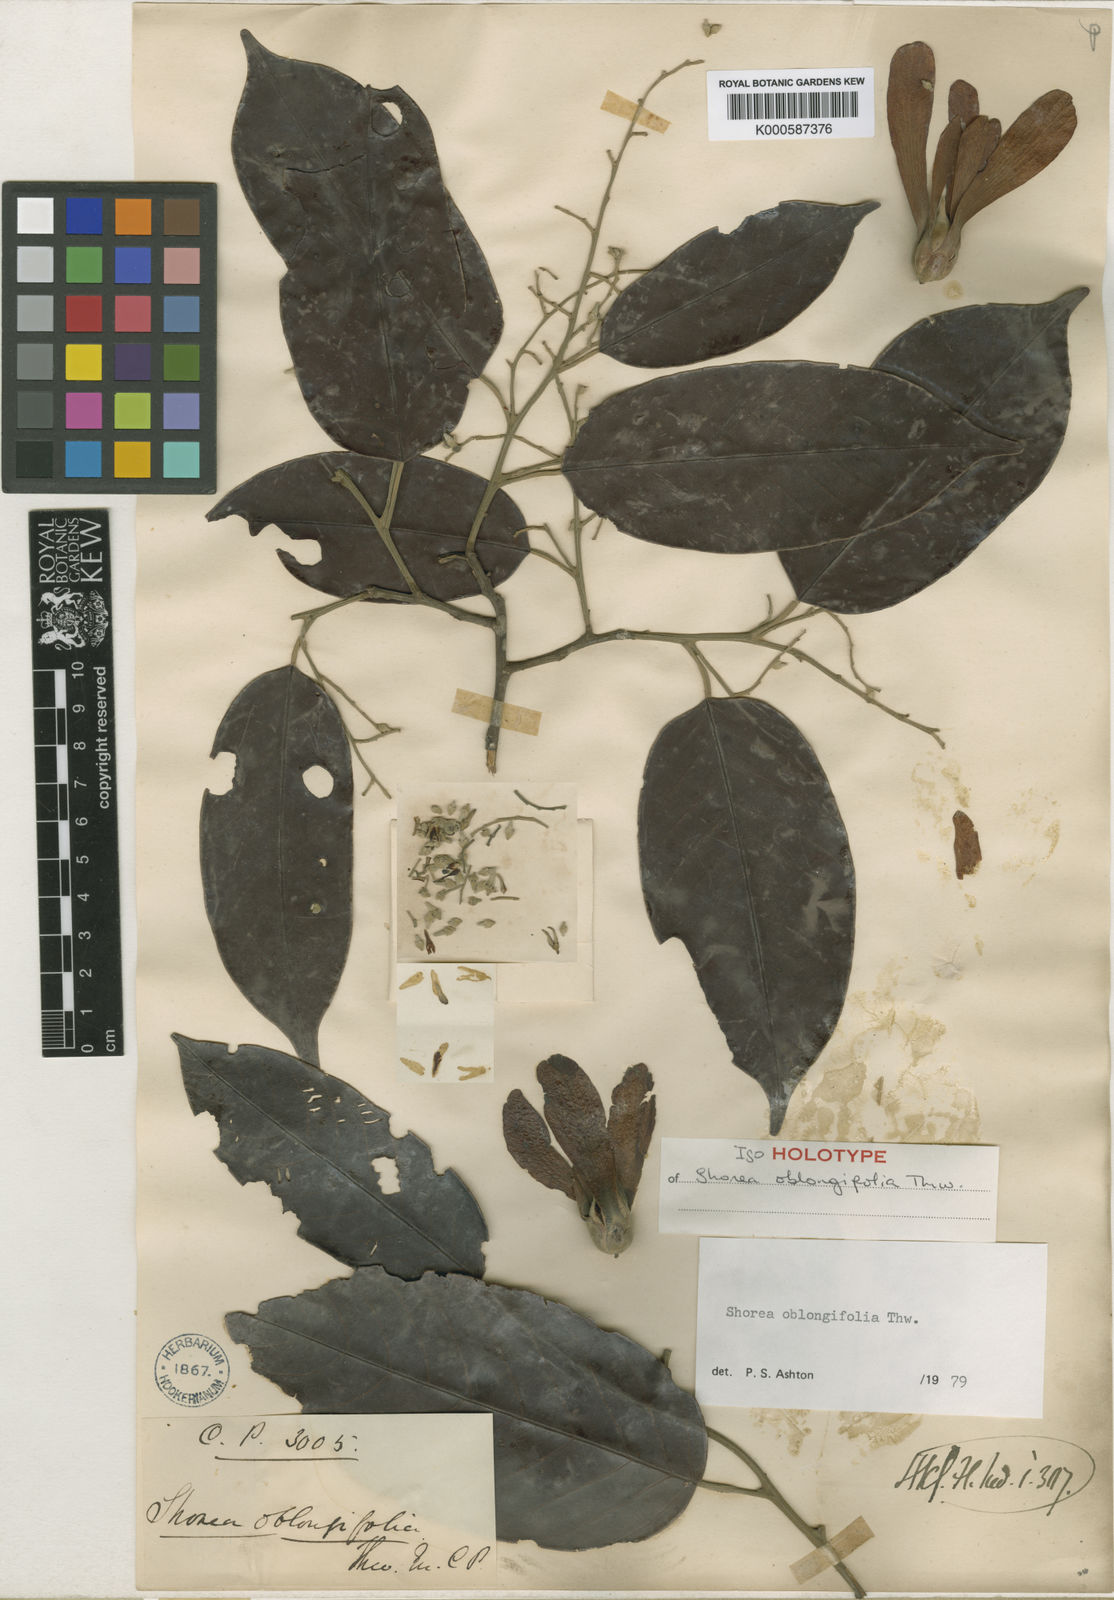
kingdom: Plantae
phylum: Tracheophyta
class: Magnoliopsida
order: Malvales
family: Dipterocarpaceae
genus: Shorea
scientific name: Shorea oblongifolia
